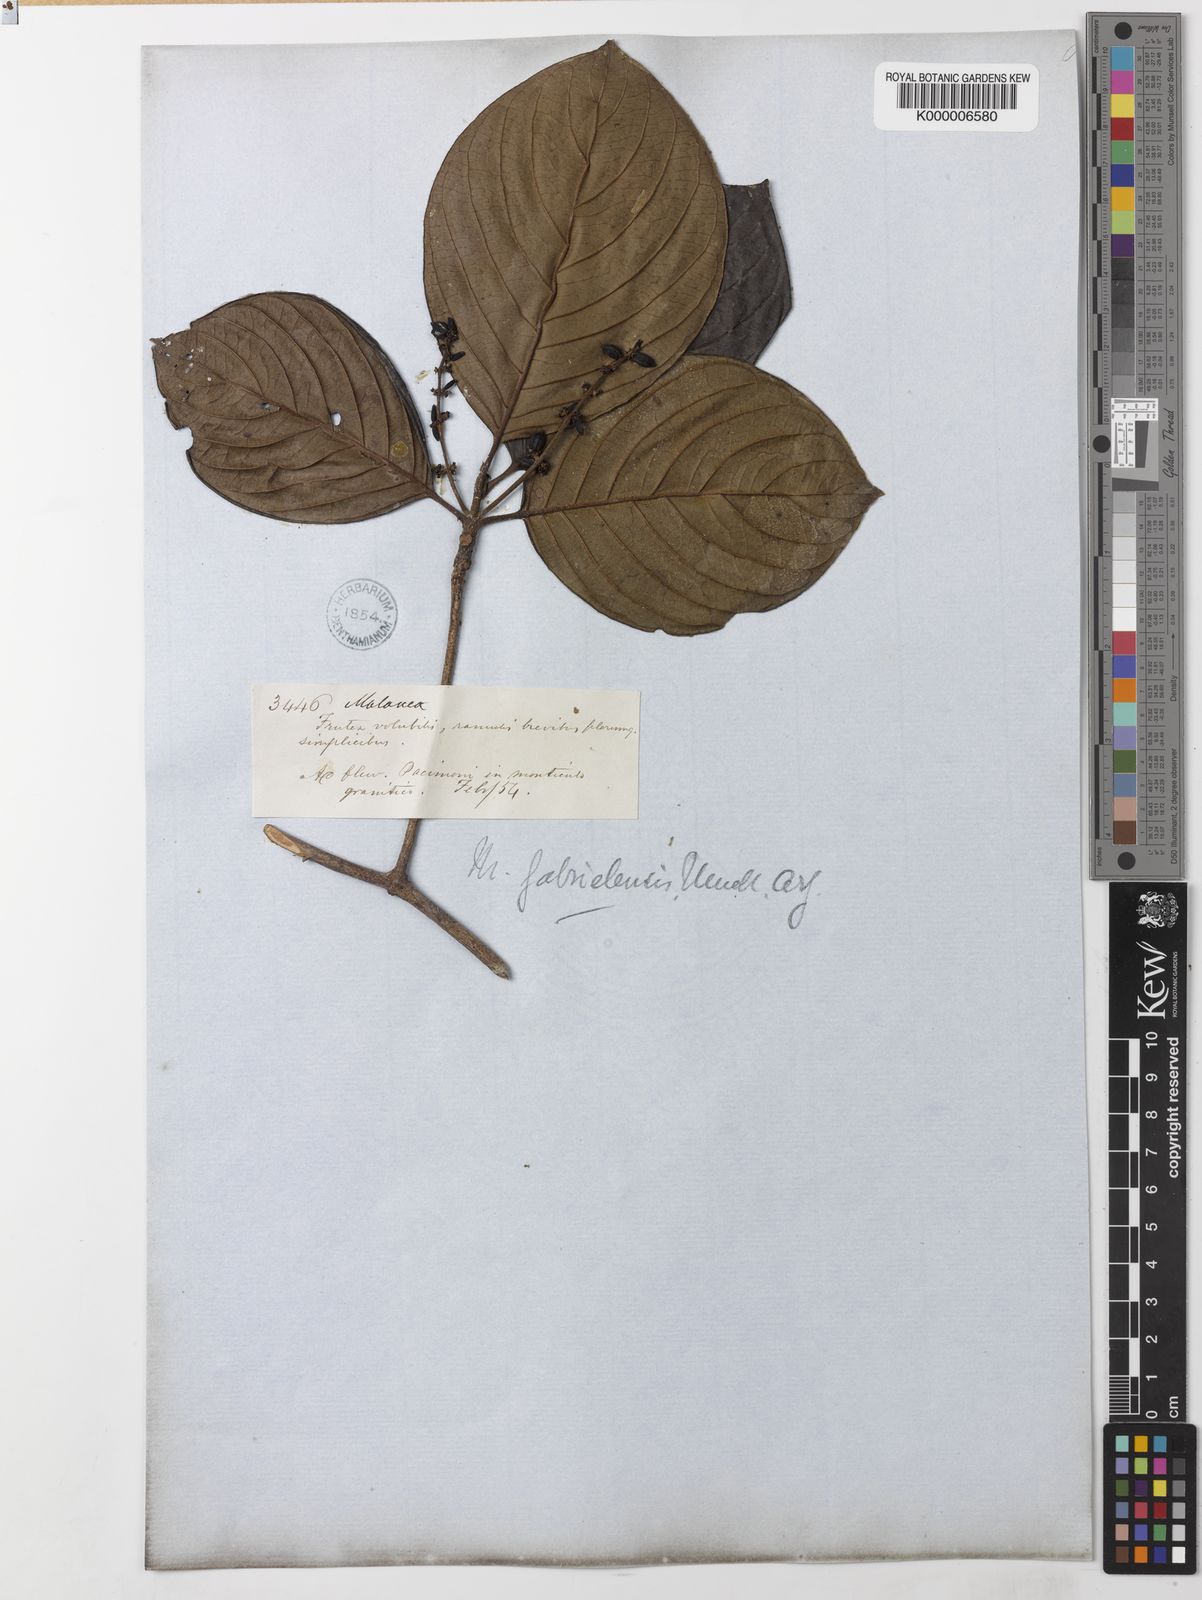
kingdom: Plantae
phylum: Tracheophyta
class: Magnoliopsida
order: Gentianales
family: Rubiaceae
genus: Malanea
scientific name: Malanea
